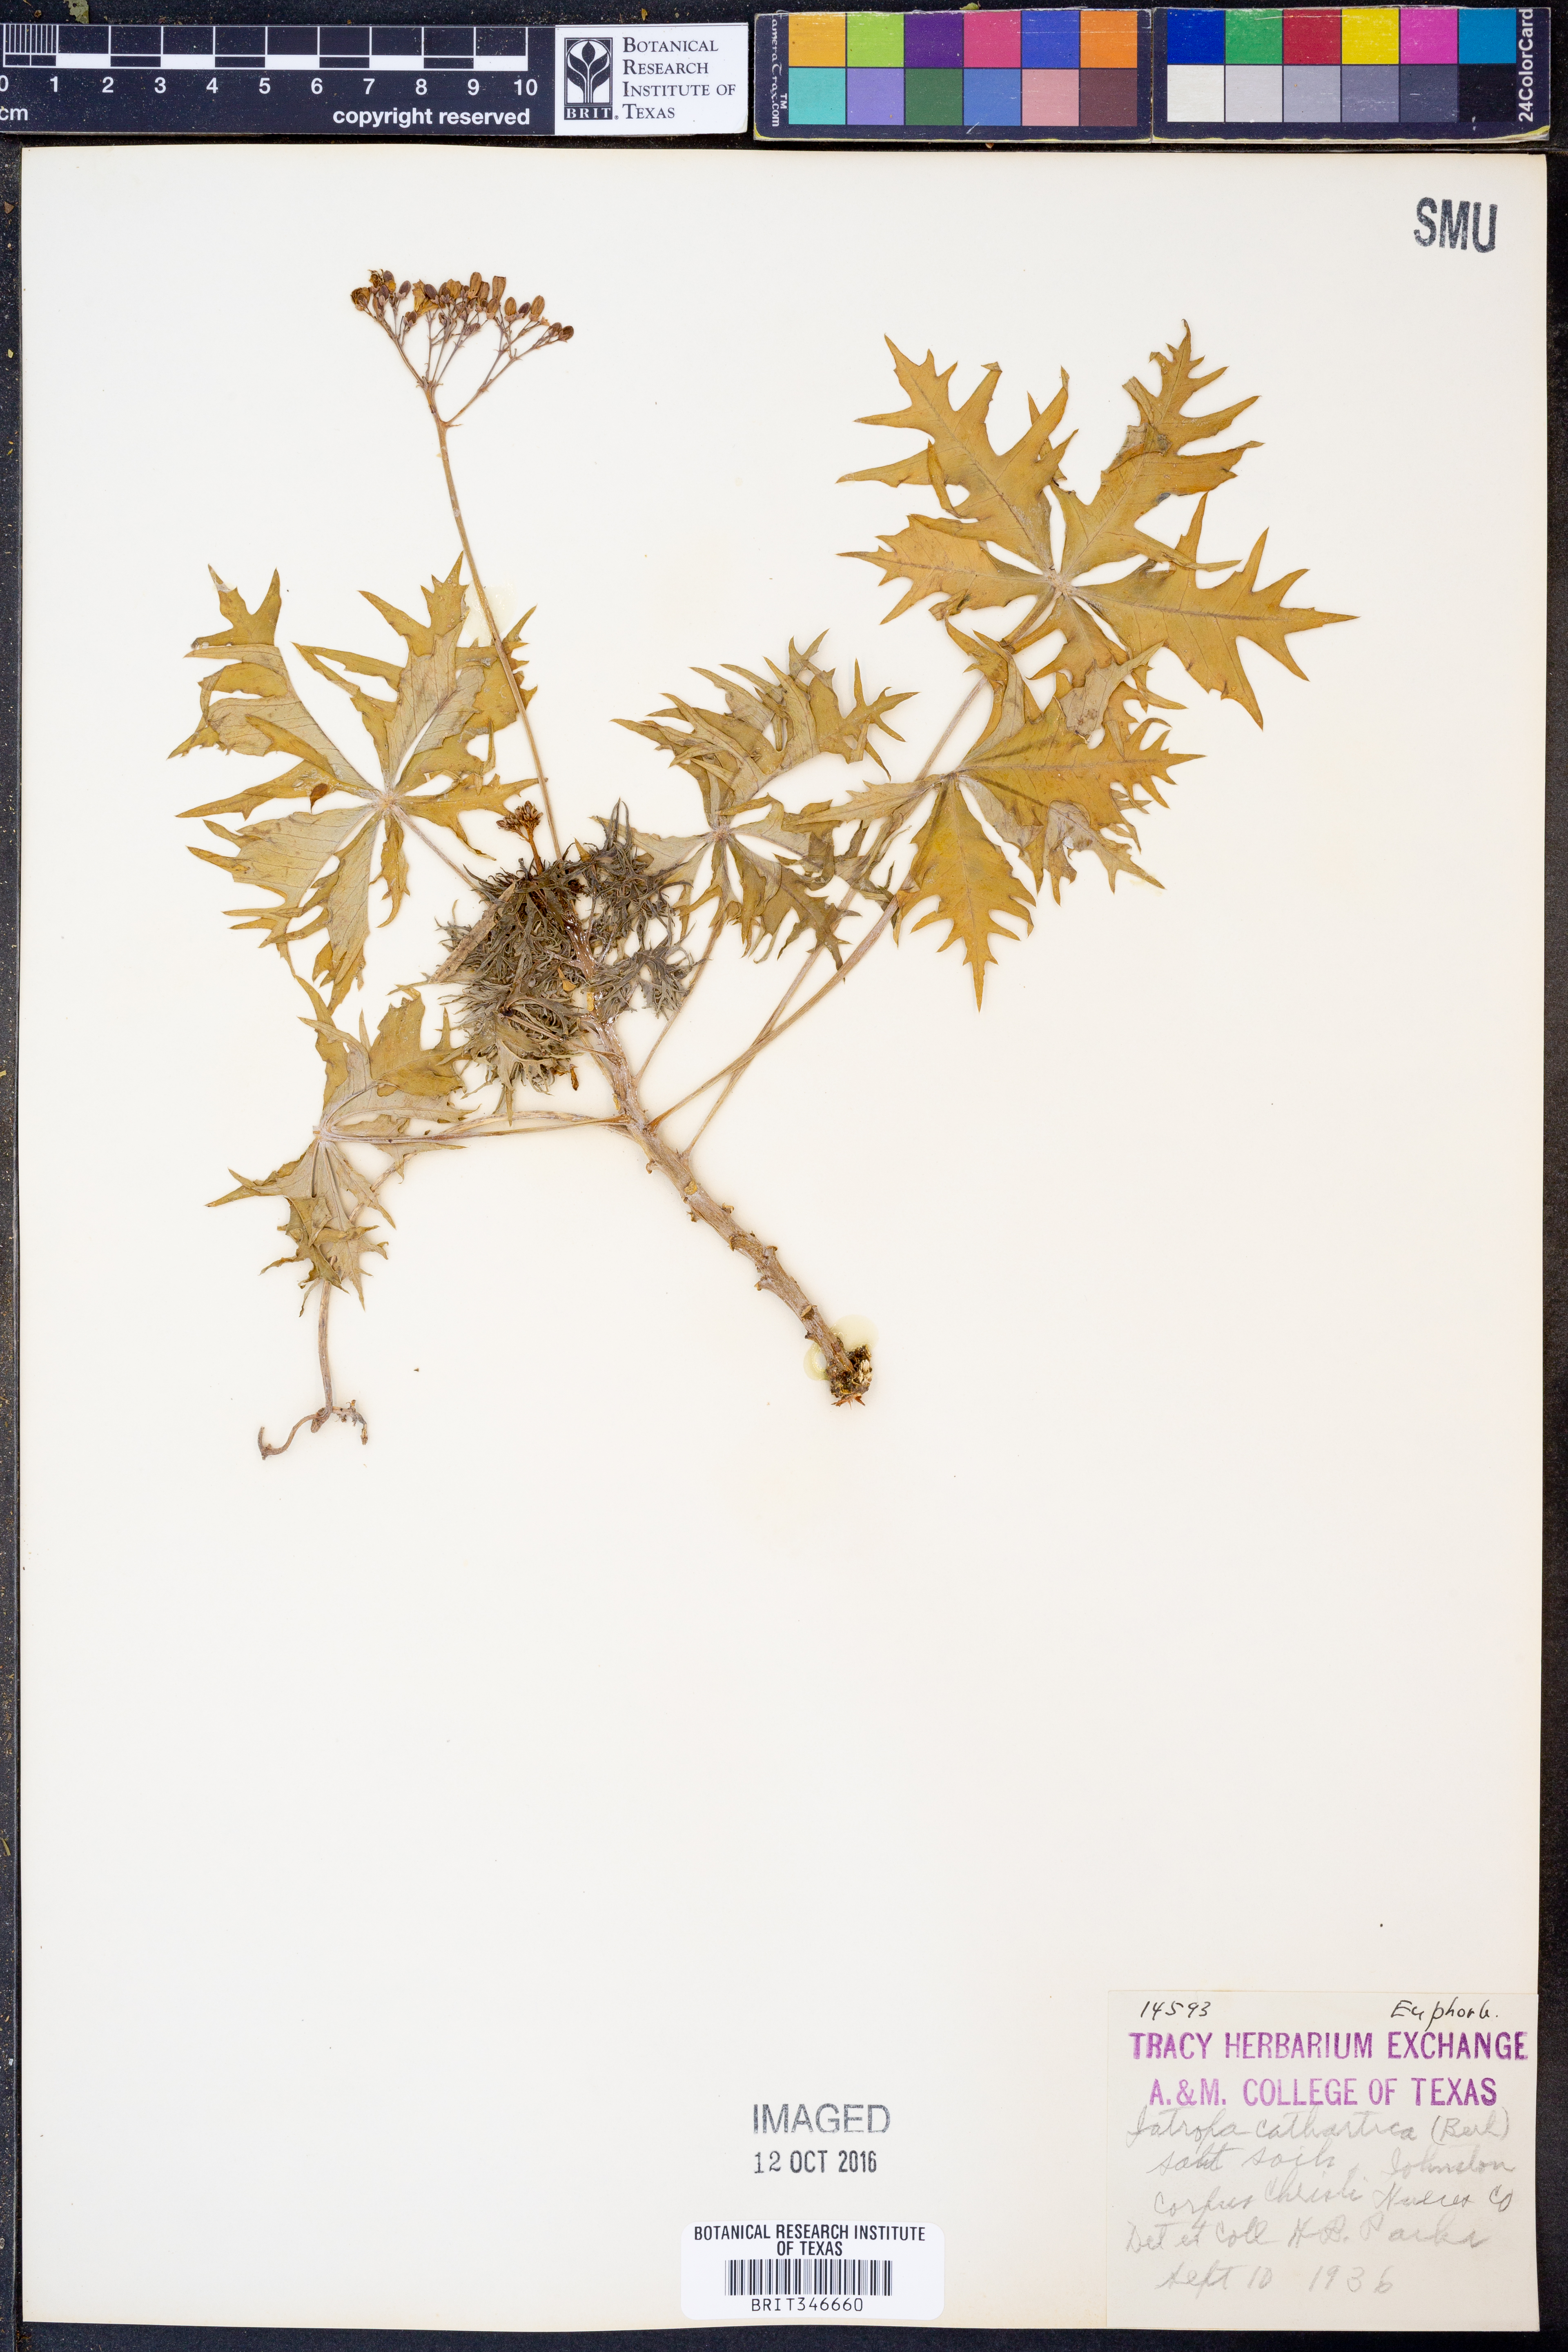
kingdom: Plantae
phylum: Tracheophyta
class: Magnoliopsida
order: Malpighiales
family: Euphorbiaceae
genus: Jatropha
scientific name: Jatropha cathartica
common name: Berlander's nettlespurge
